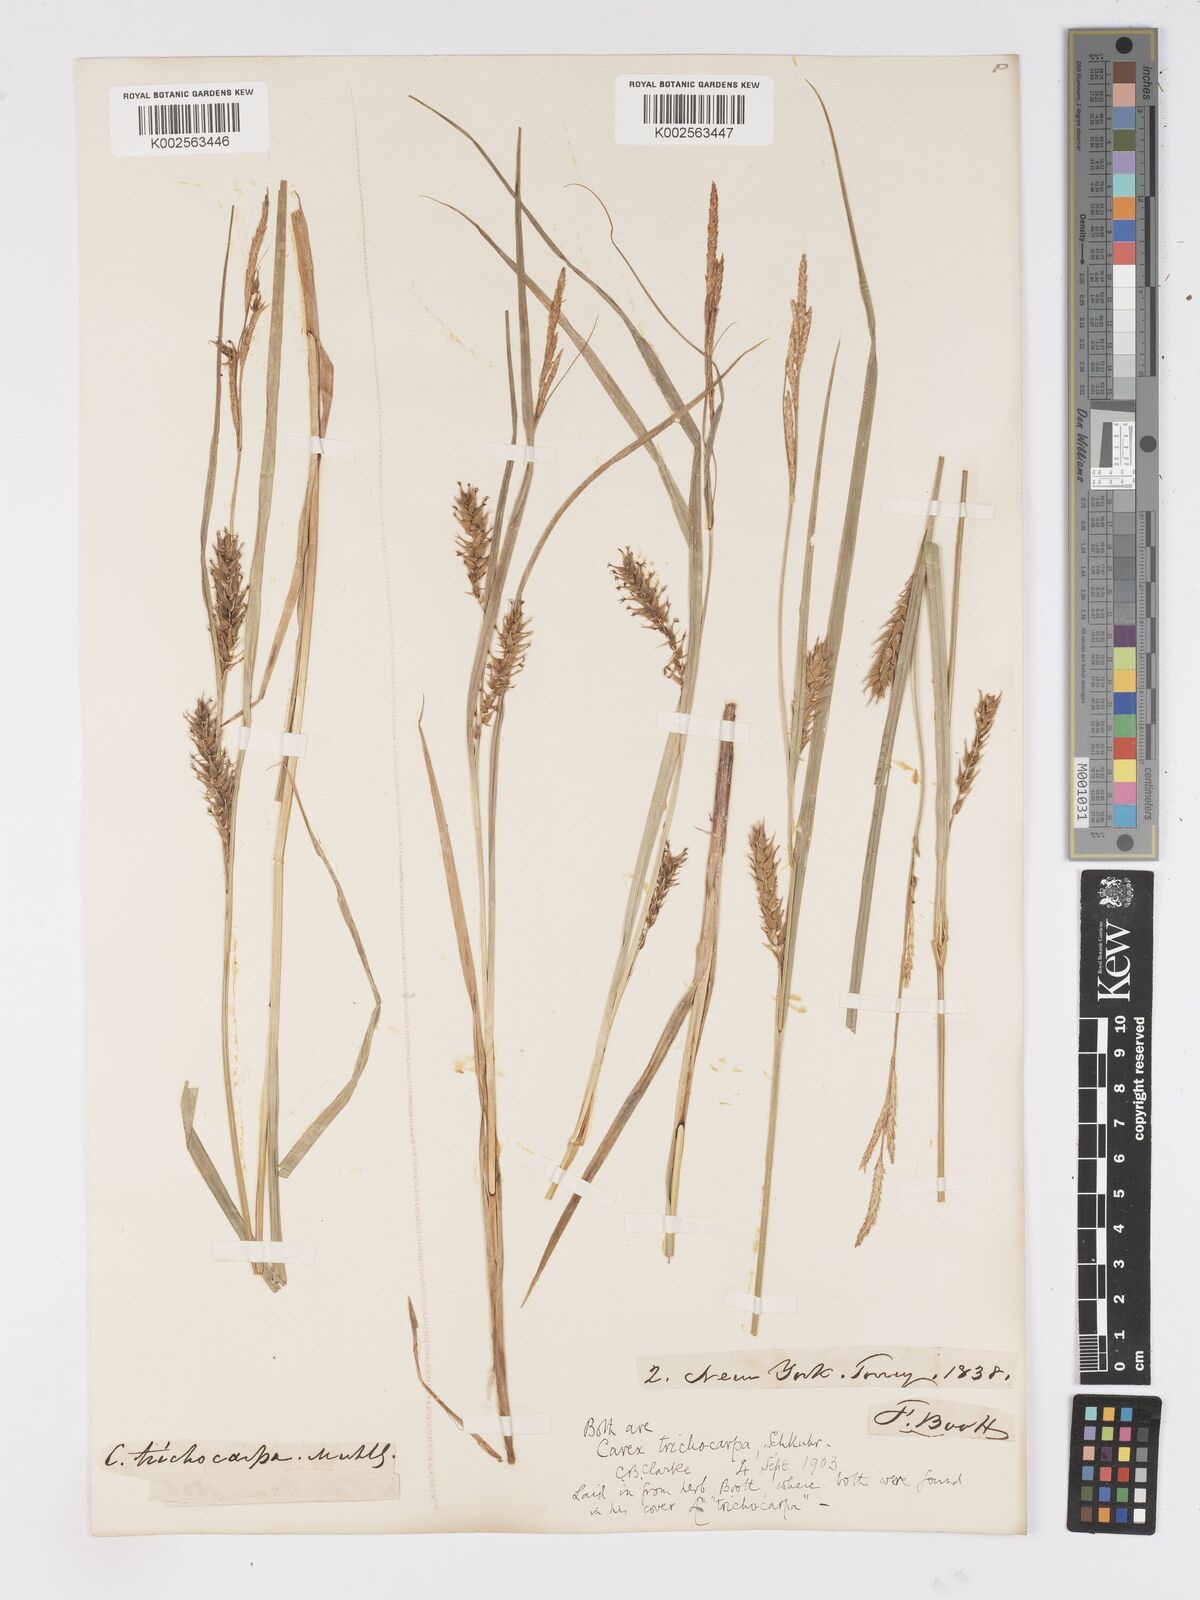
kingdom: Plantae
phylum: Tracheophyta
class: Liliopsida
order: Poales
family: Cyperaceae
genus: Carex
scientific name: Carex trichocarpa
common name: Hairy-fruited lake sedge
